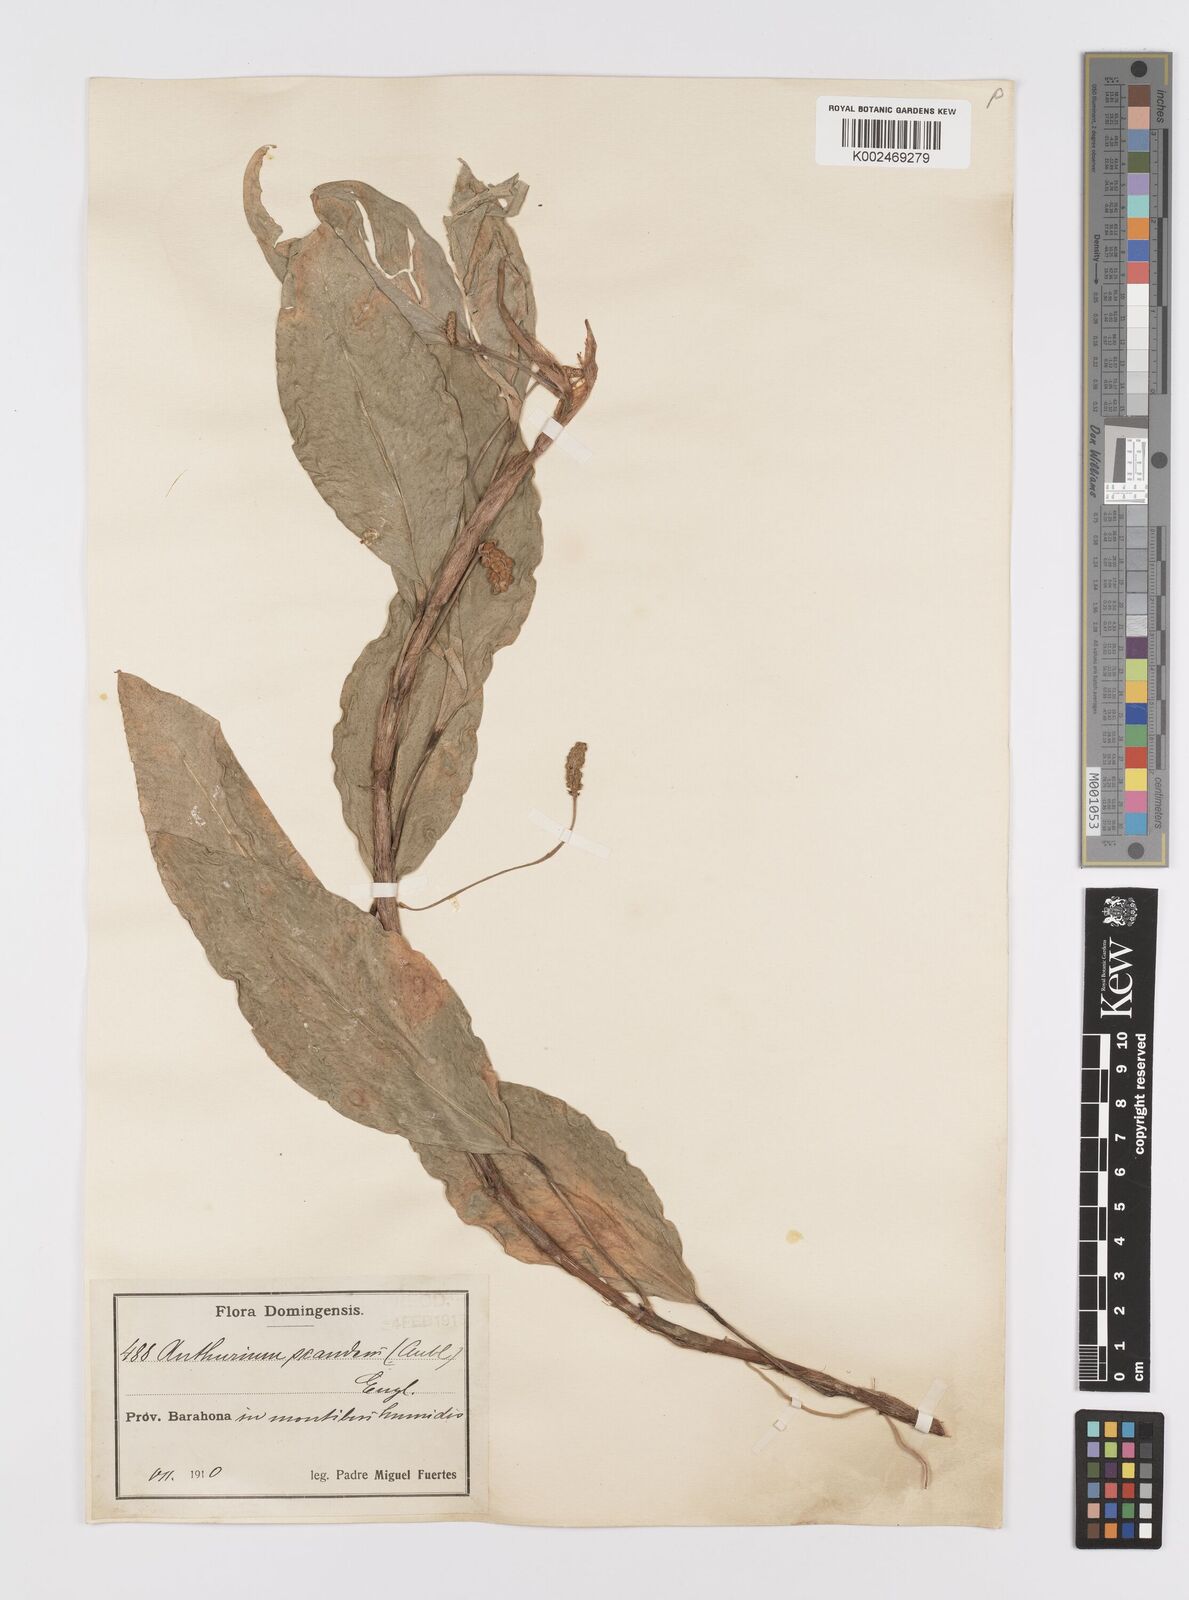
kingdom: Plantae
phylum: Tracheophyta
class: Liliopsida
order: Alismatales
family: Araceae
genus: Anthurium
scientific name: Anthurium scandens
